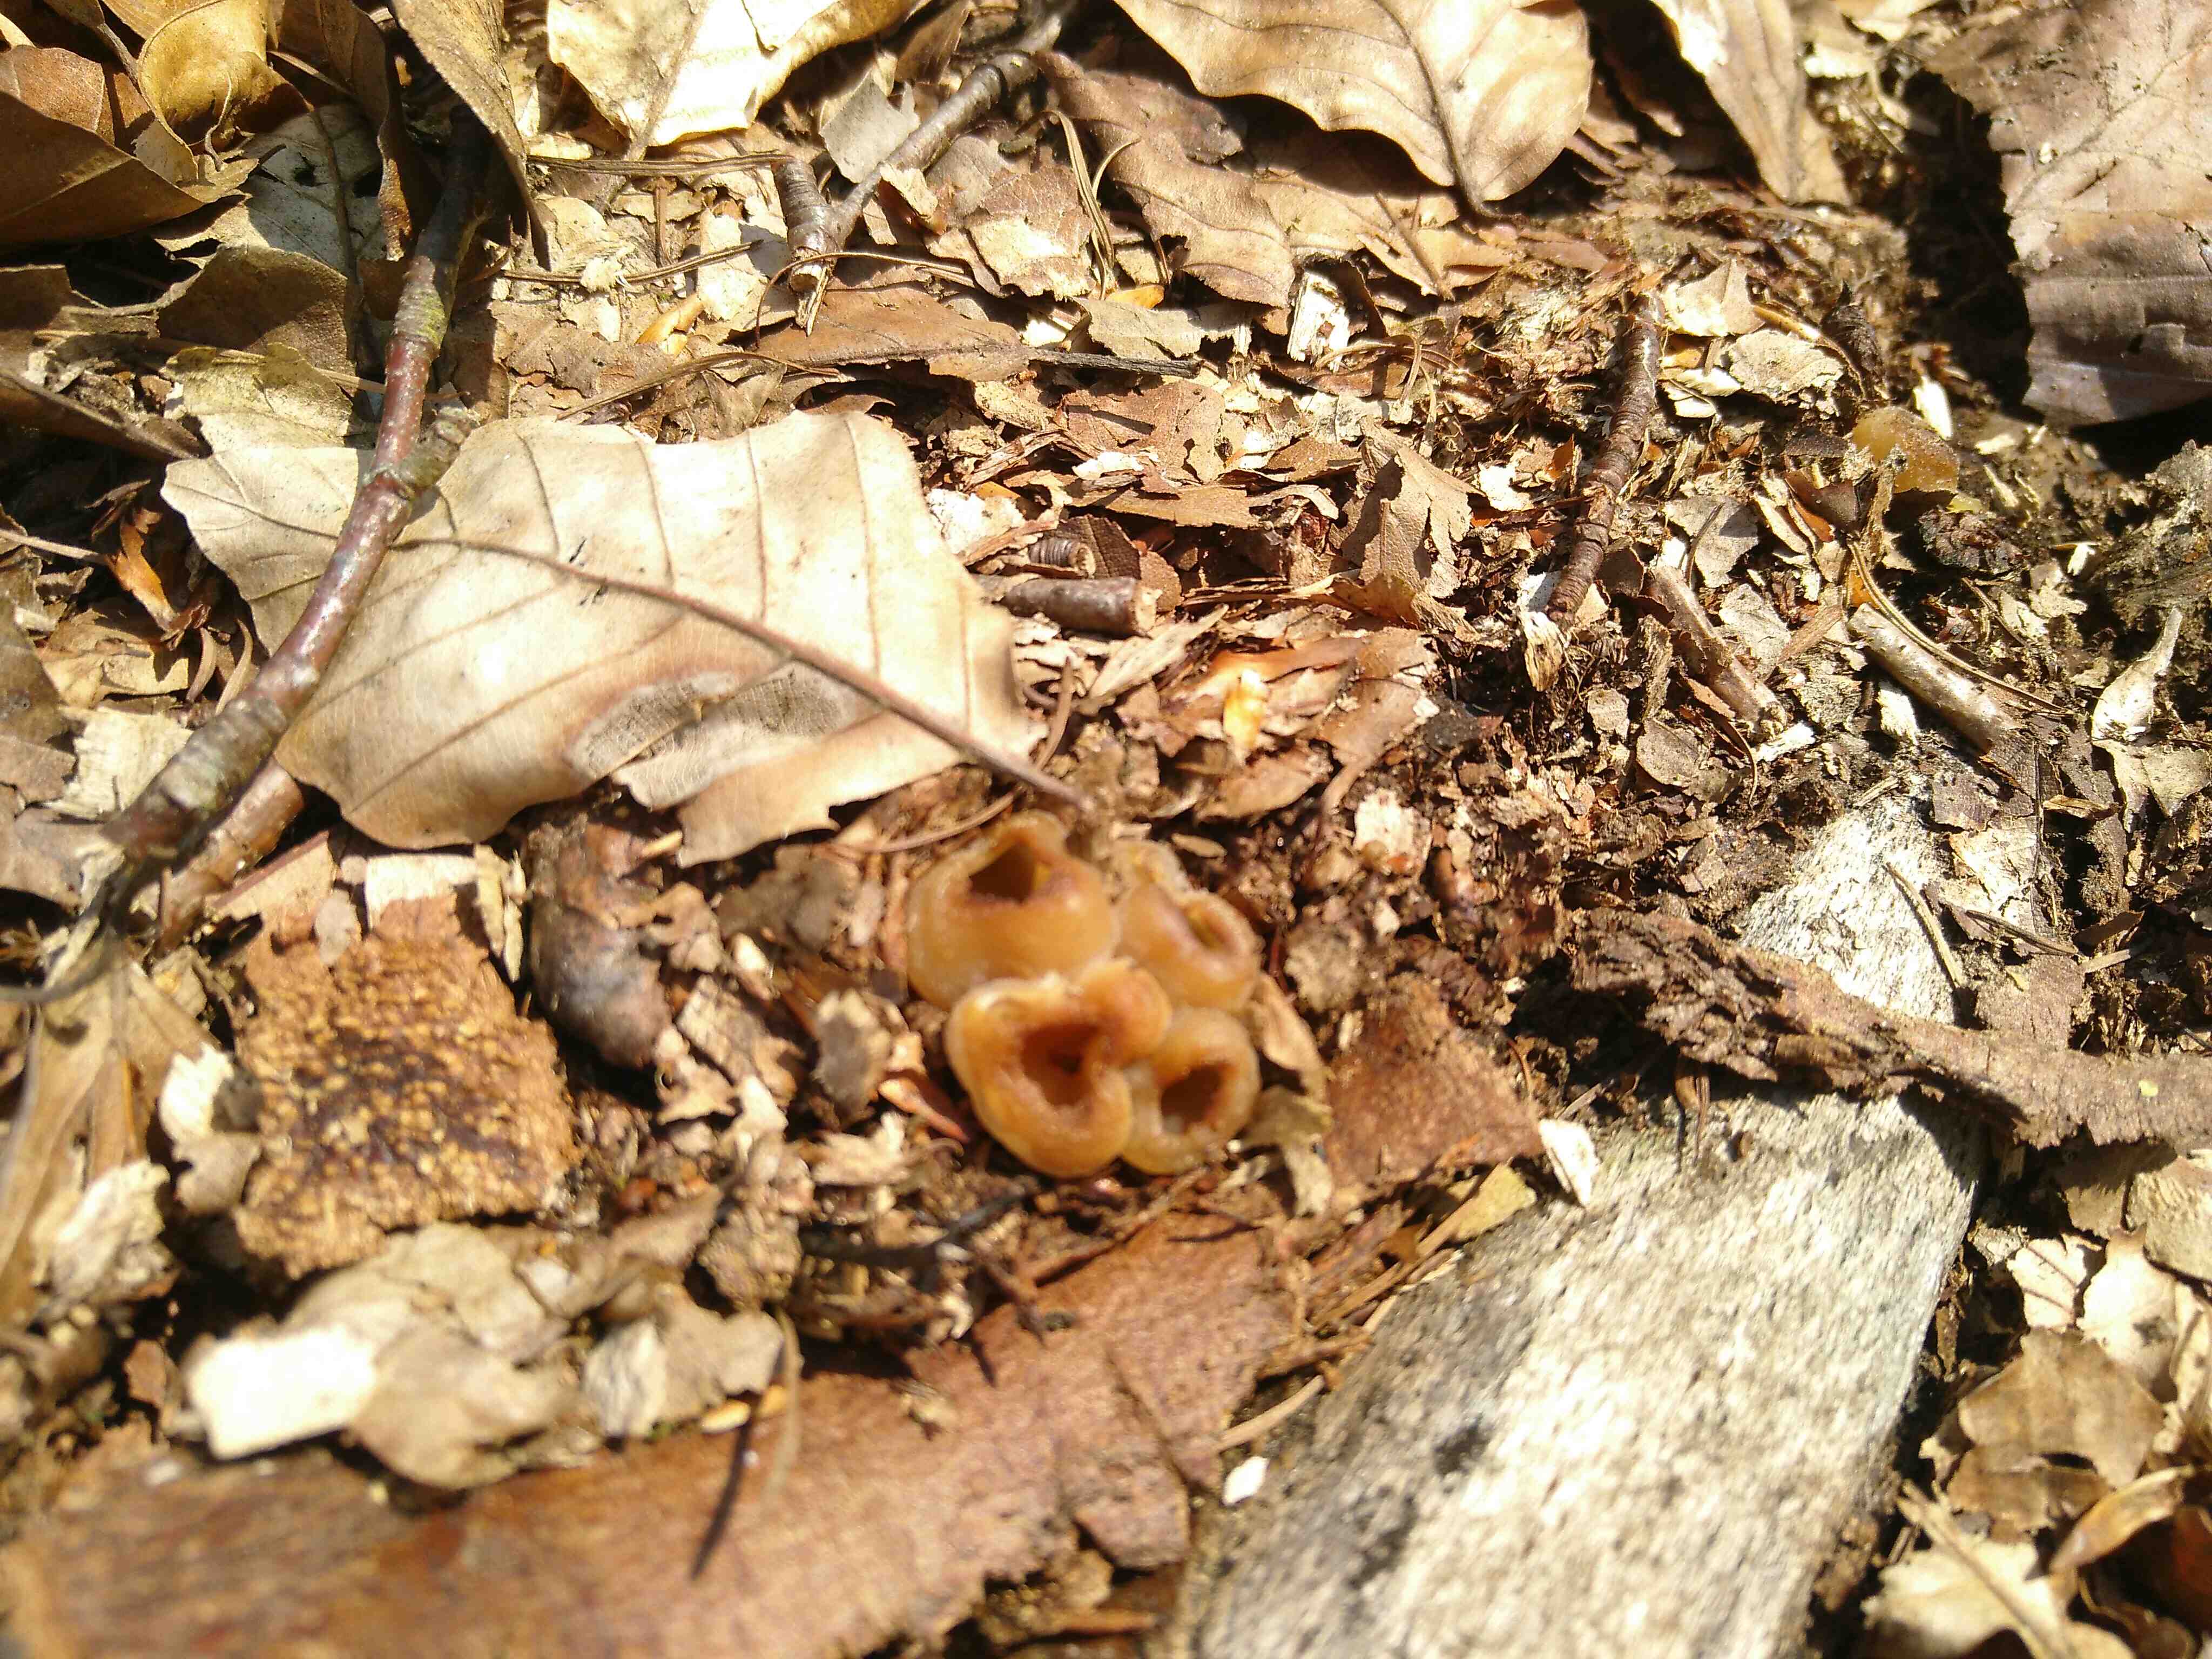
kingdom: Fungi
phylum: Ascomycota
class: Pezizomycetes
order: Pezizales
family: Pezizaceae
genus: Peziza
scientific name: Peziza
